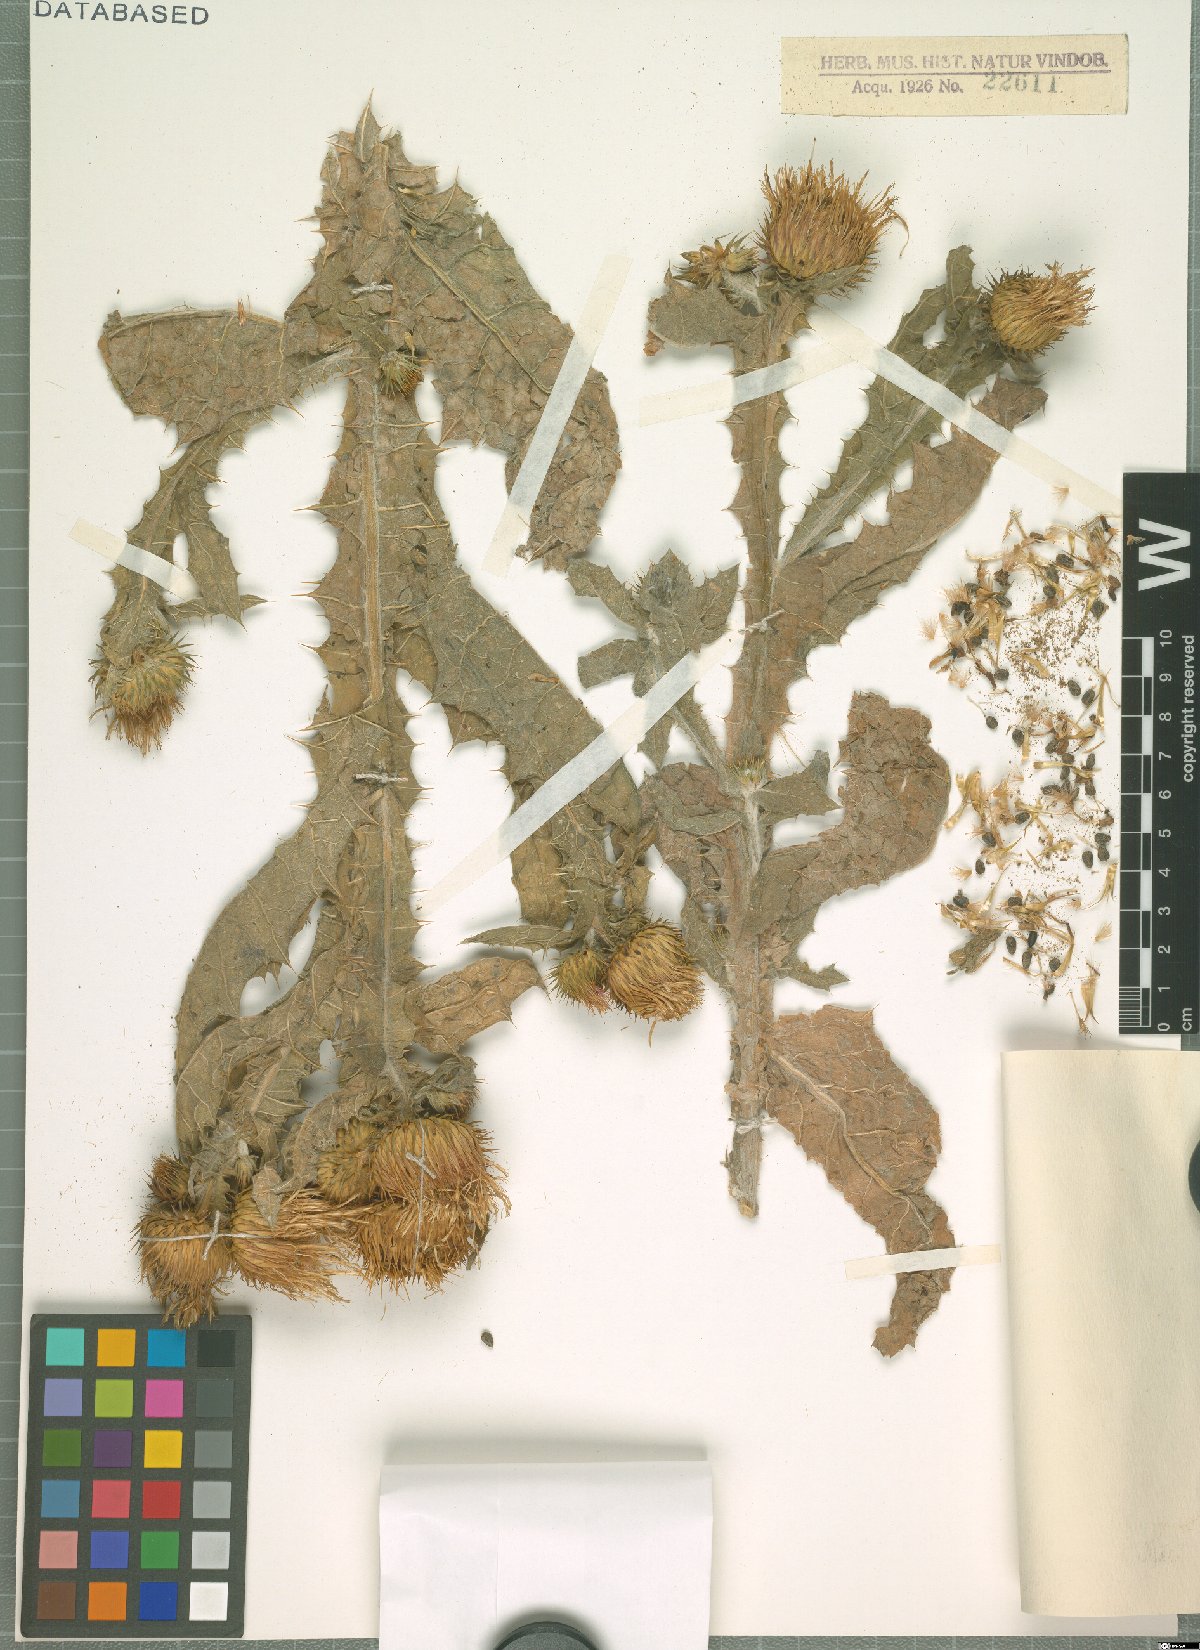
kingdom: Plantae
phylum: Tracheophyta
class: Magnoliopsida
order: Asterales
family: Asteraceae
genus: Onopordum
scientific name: Onopordum acanthium
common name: Scotch thistle
